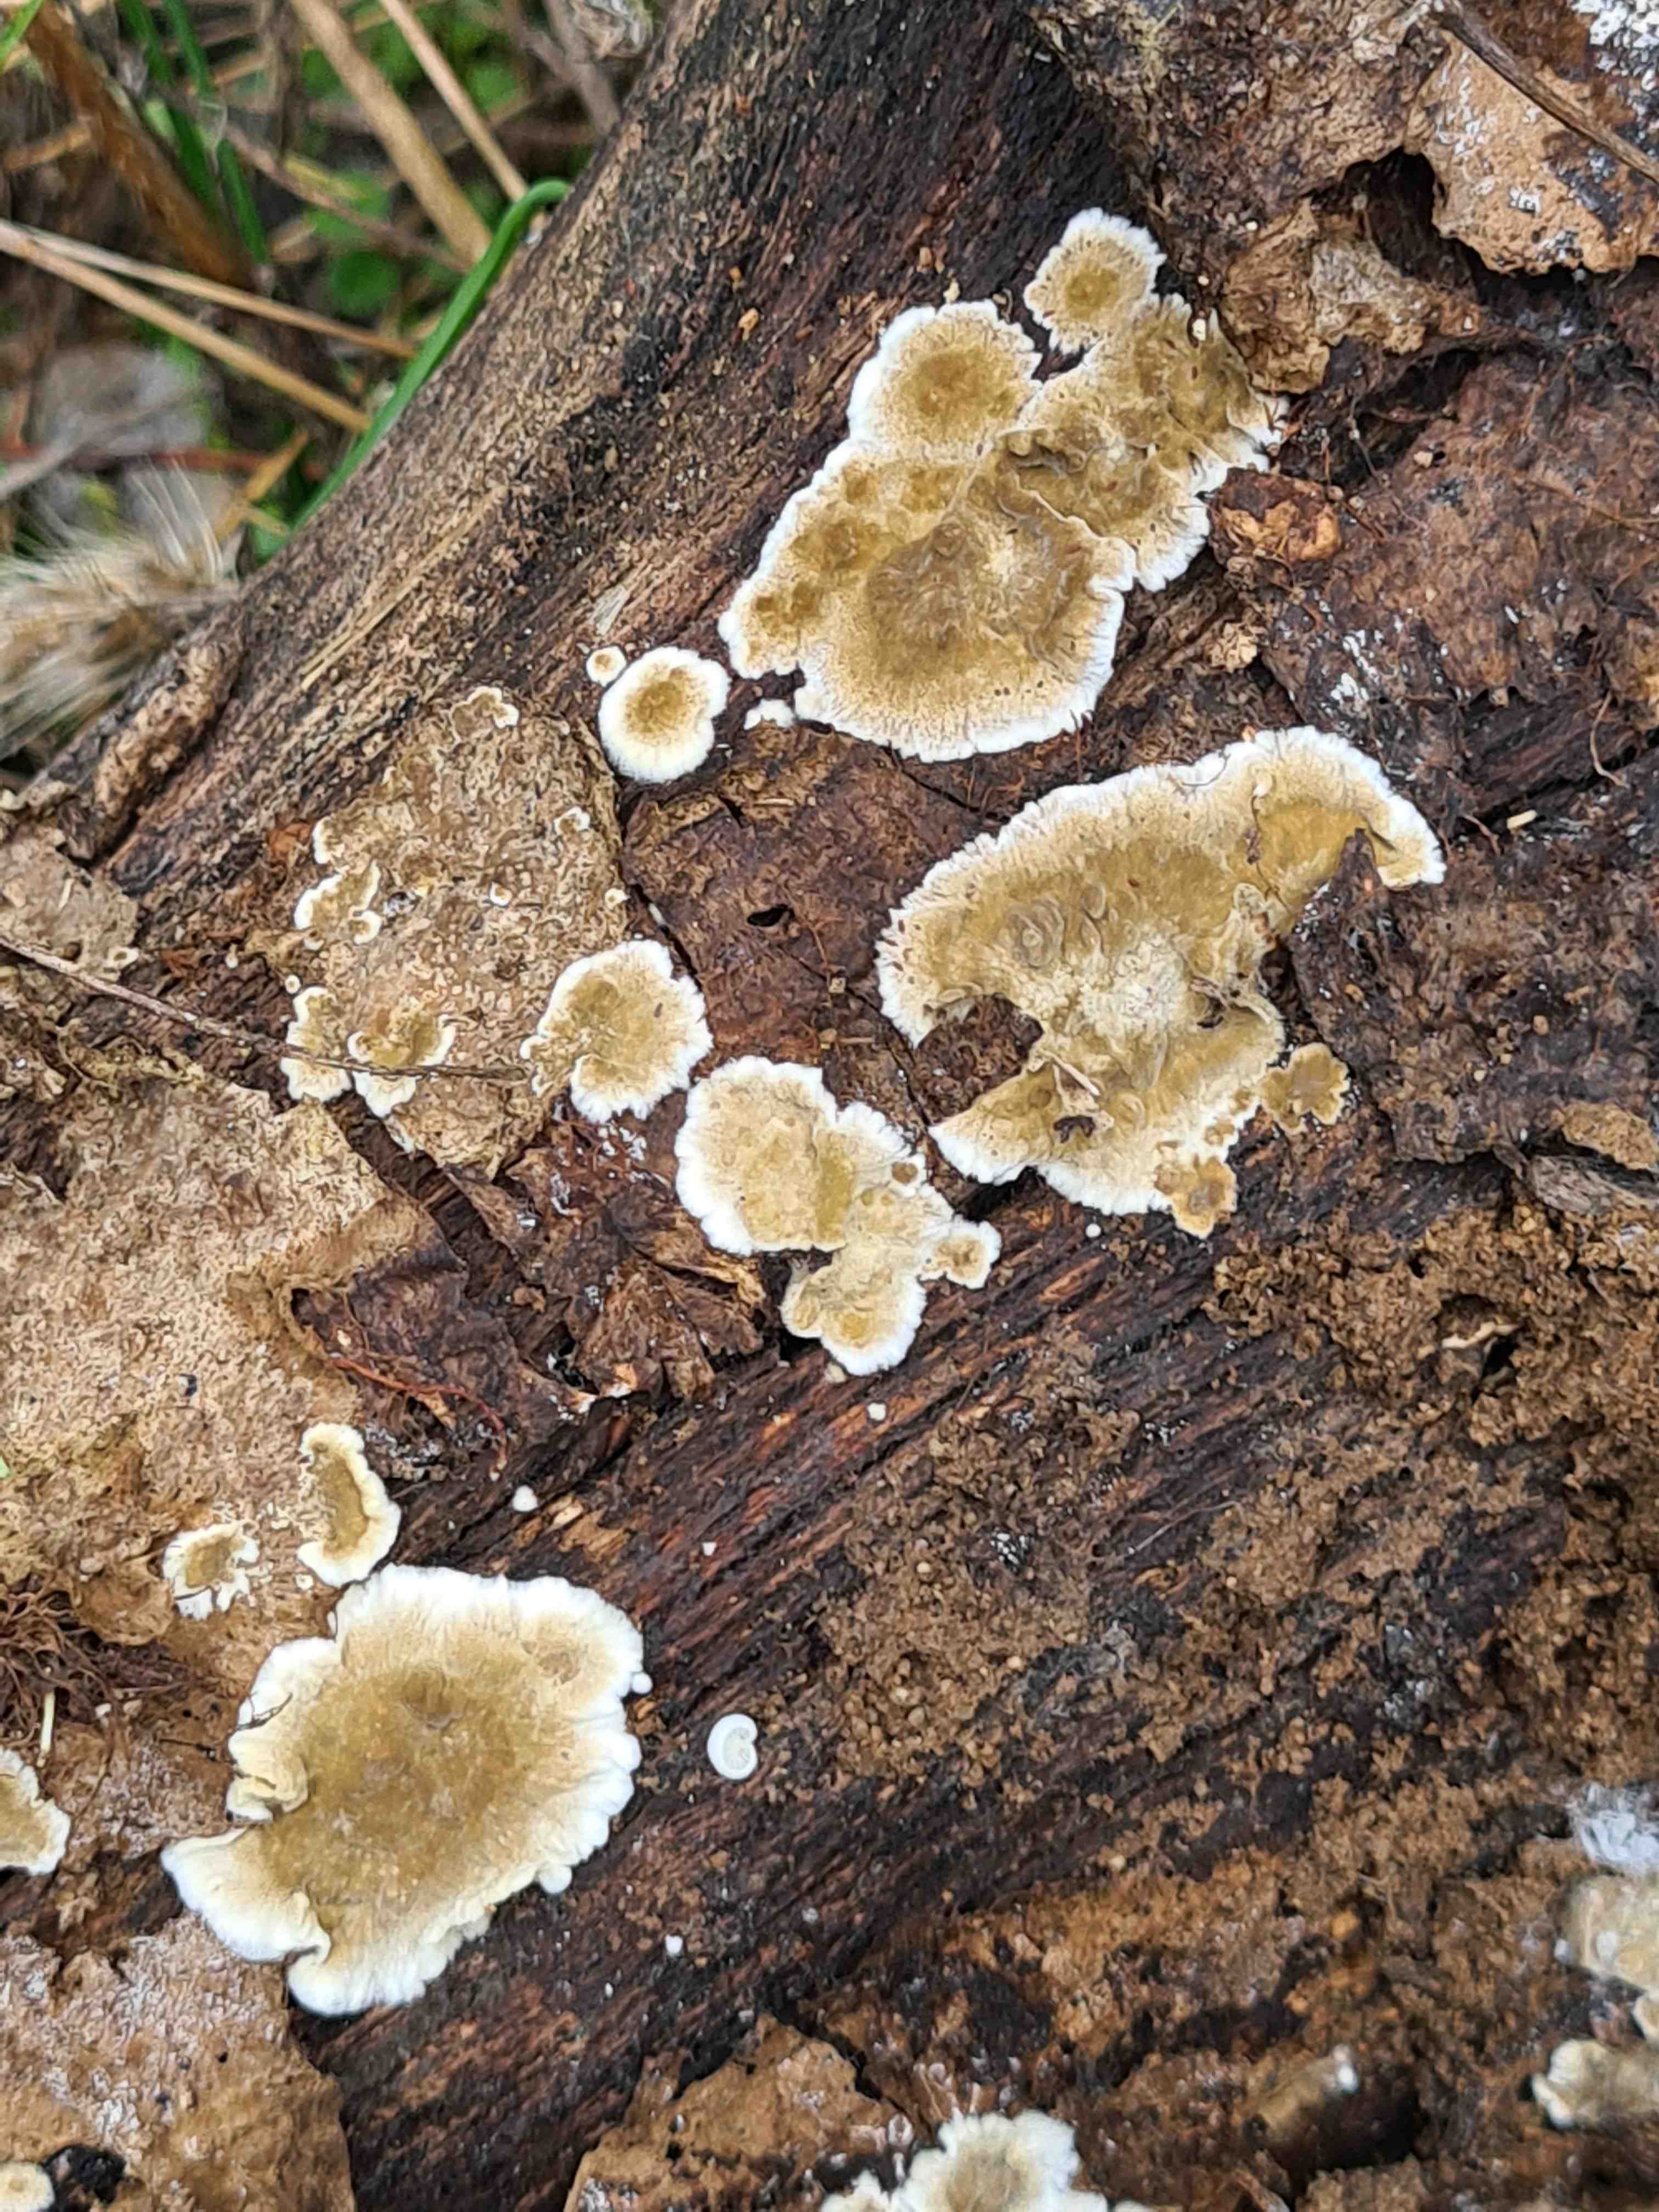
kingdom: Fungi
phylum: Basidiomycota
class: Agaricomycetes
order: Polyporales
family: Phanerochaetaceae
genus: Porostereum
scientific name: Porostereum spadiceum
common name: daddellædersvamp
